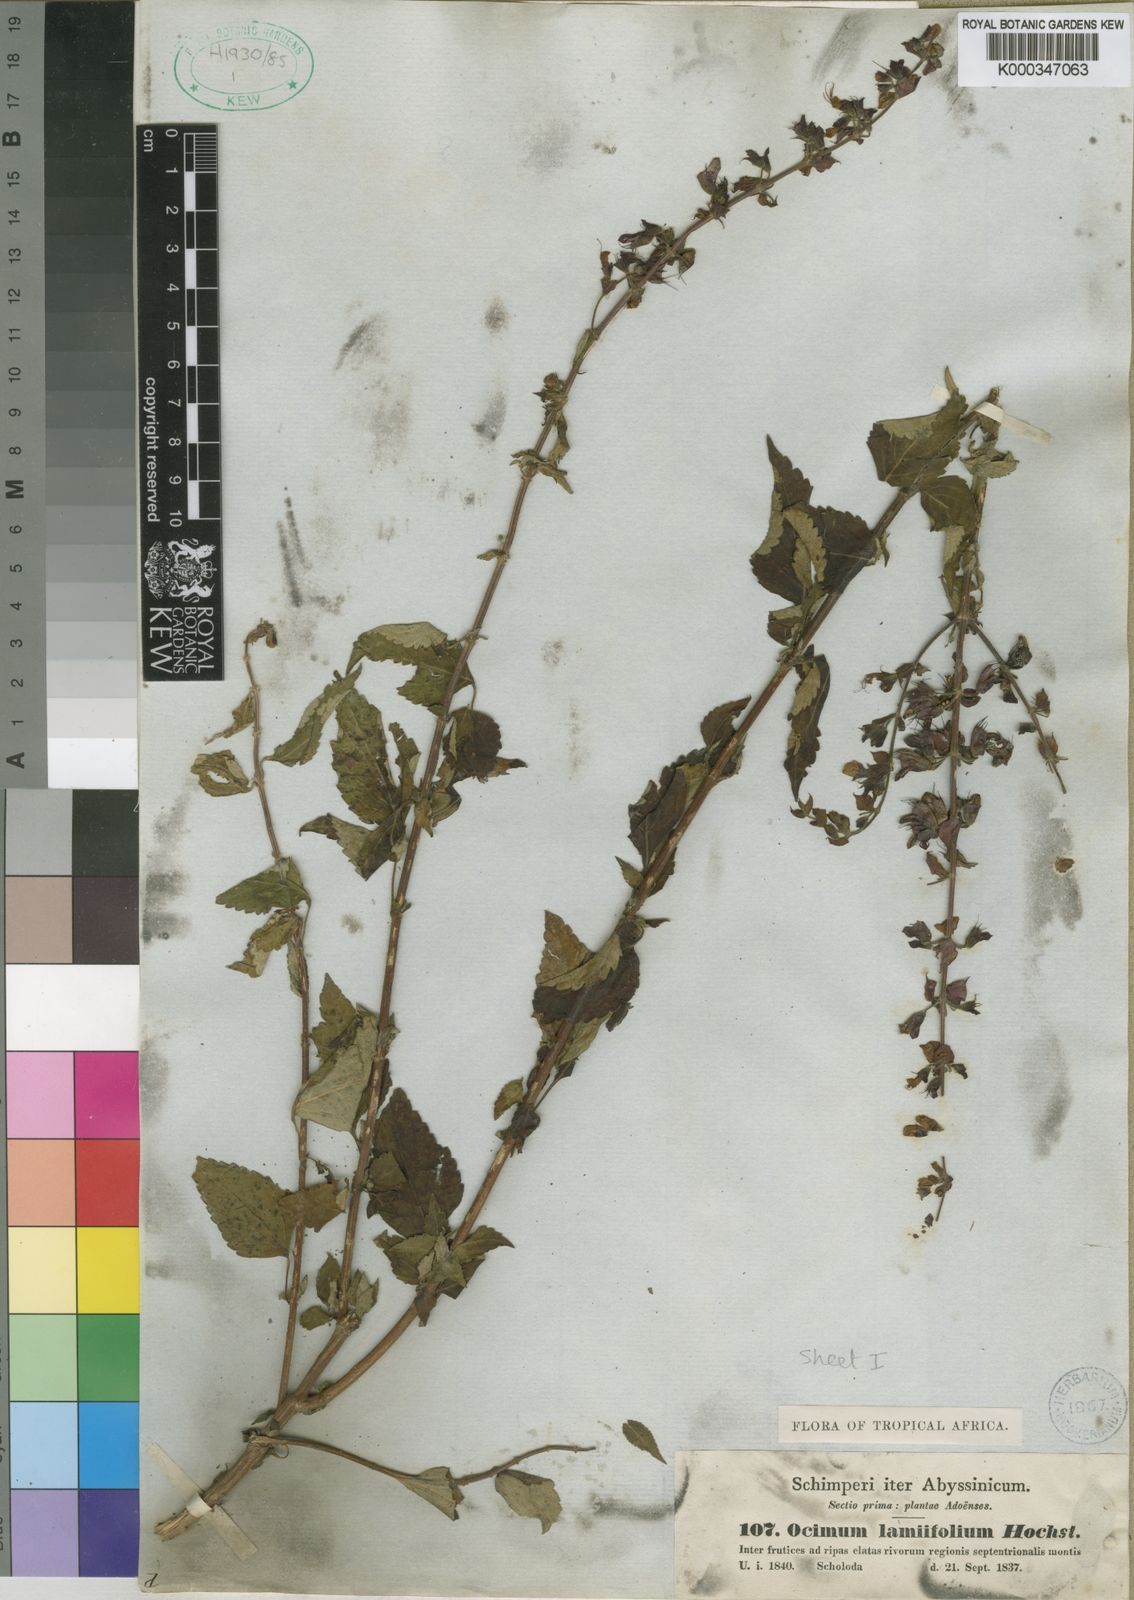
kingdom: Plantae
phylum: Tracheophyta
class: Magnoliopsida
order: Lamiales
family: Lamiaceae
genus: Ocimum
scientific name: Ocimum lamiifolium
